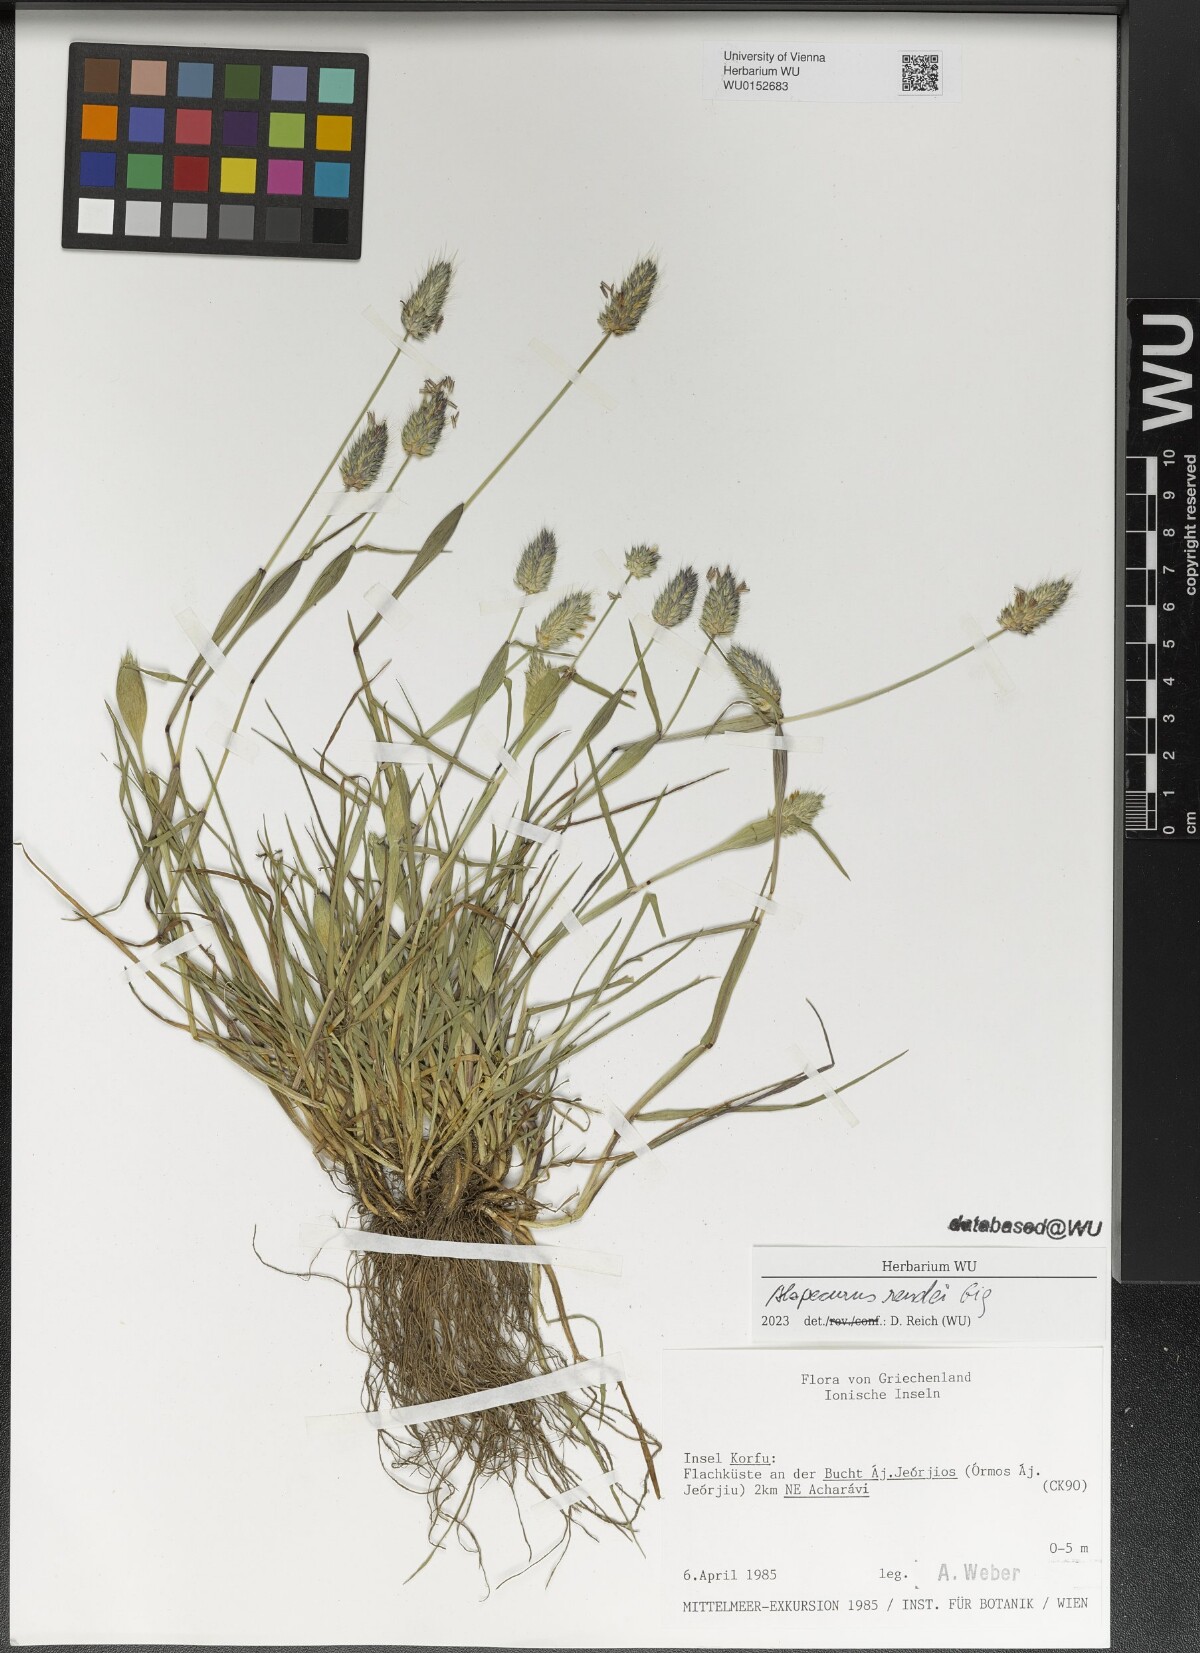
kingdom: Plantae
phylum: Tracheophyta
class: Liliopsida
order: Poales
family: Poaceae
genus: Alopecurus
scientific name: Alopecurus rendlei
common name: Rendle's meadow foxtail
